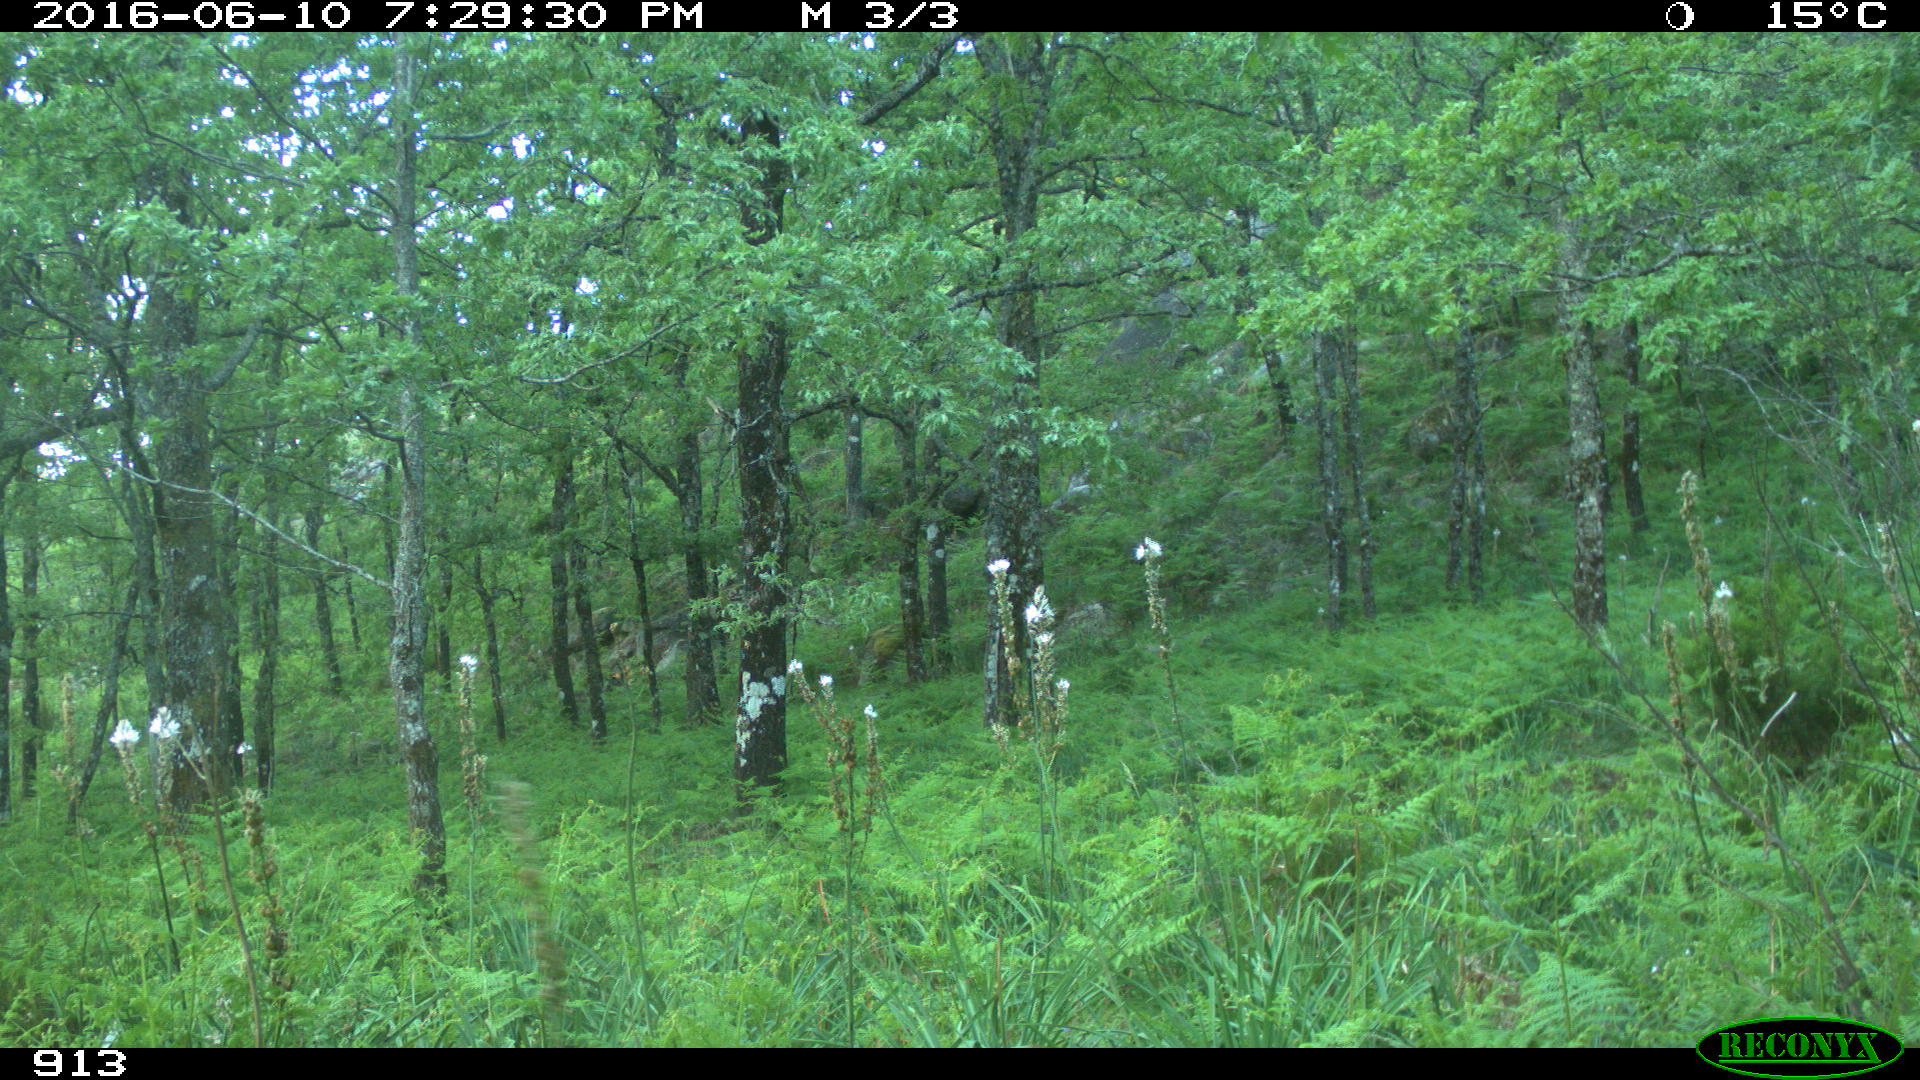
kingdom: Animalia
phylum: Chordata
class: Mammalia
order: Artiodactyla
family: Bovidae
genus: Bos
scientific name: Bos taurus
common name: Domesticated cattle
